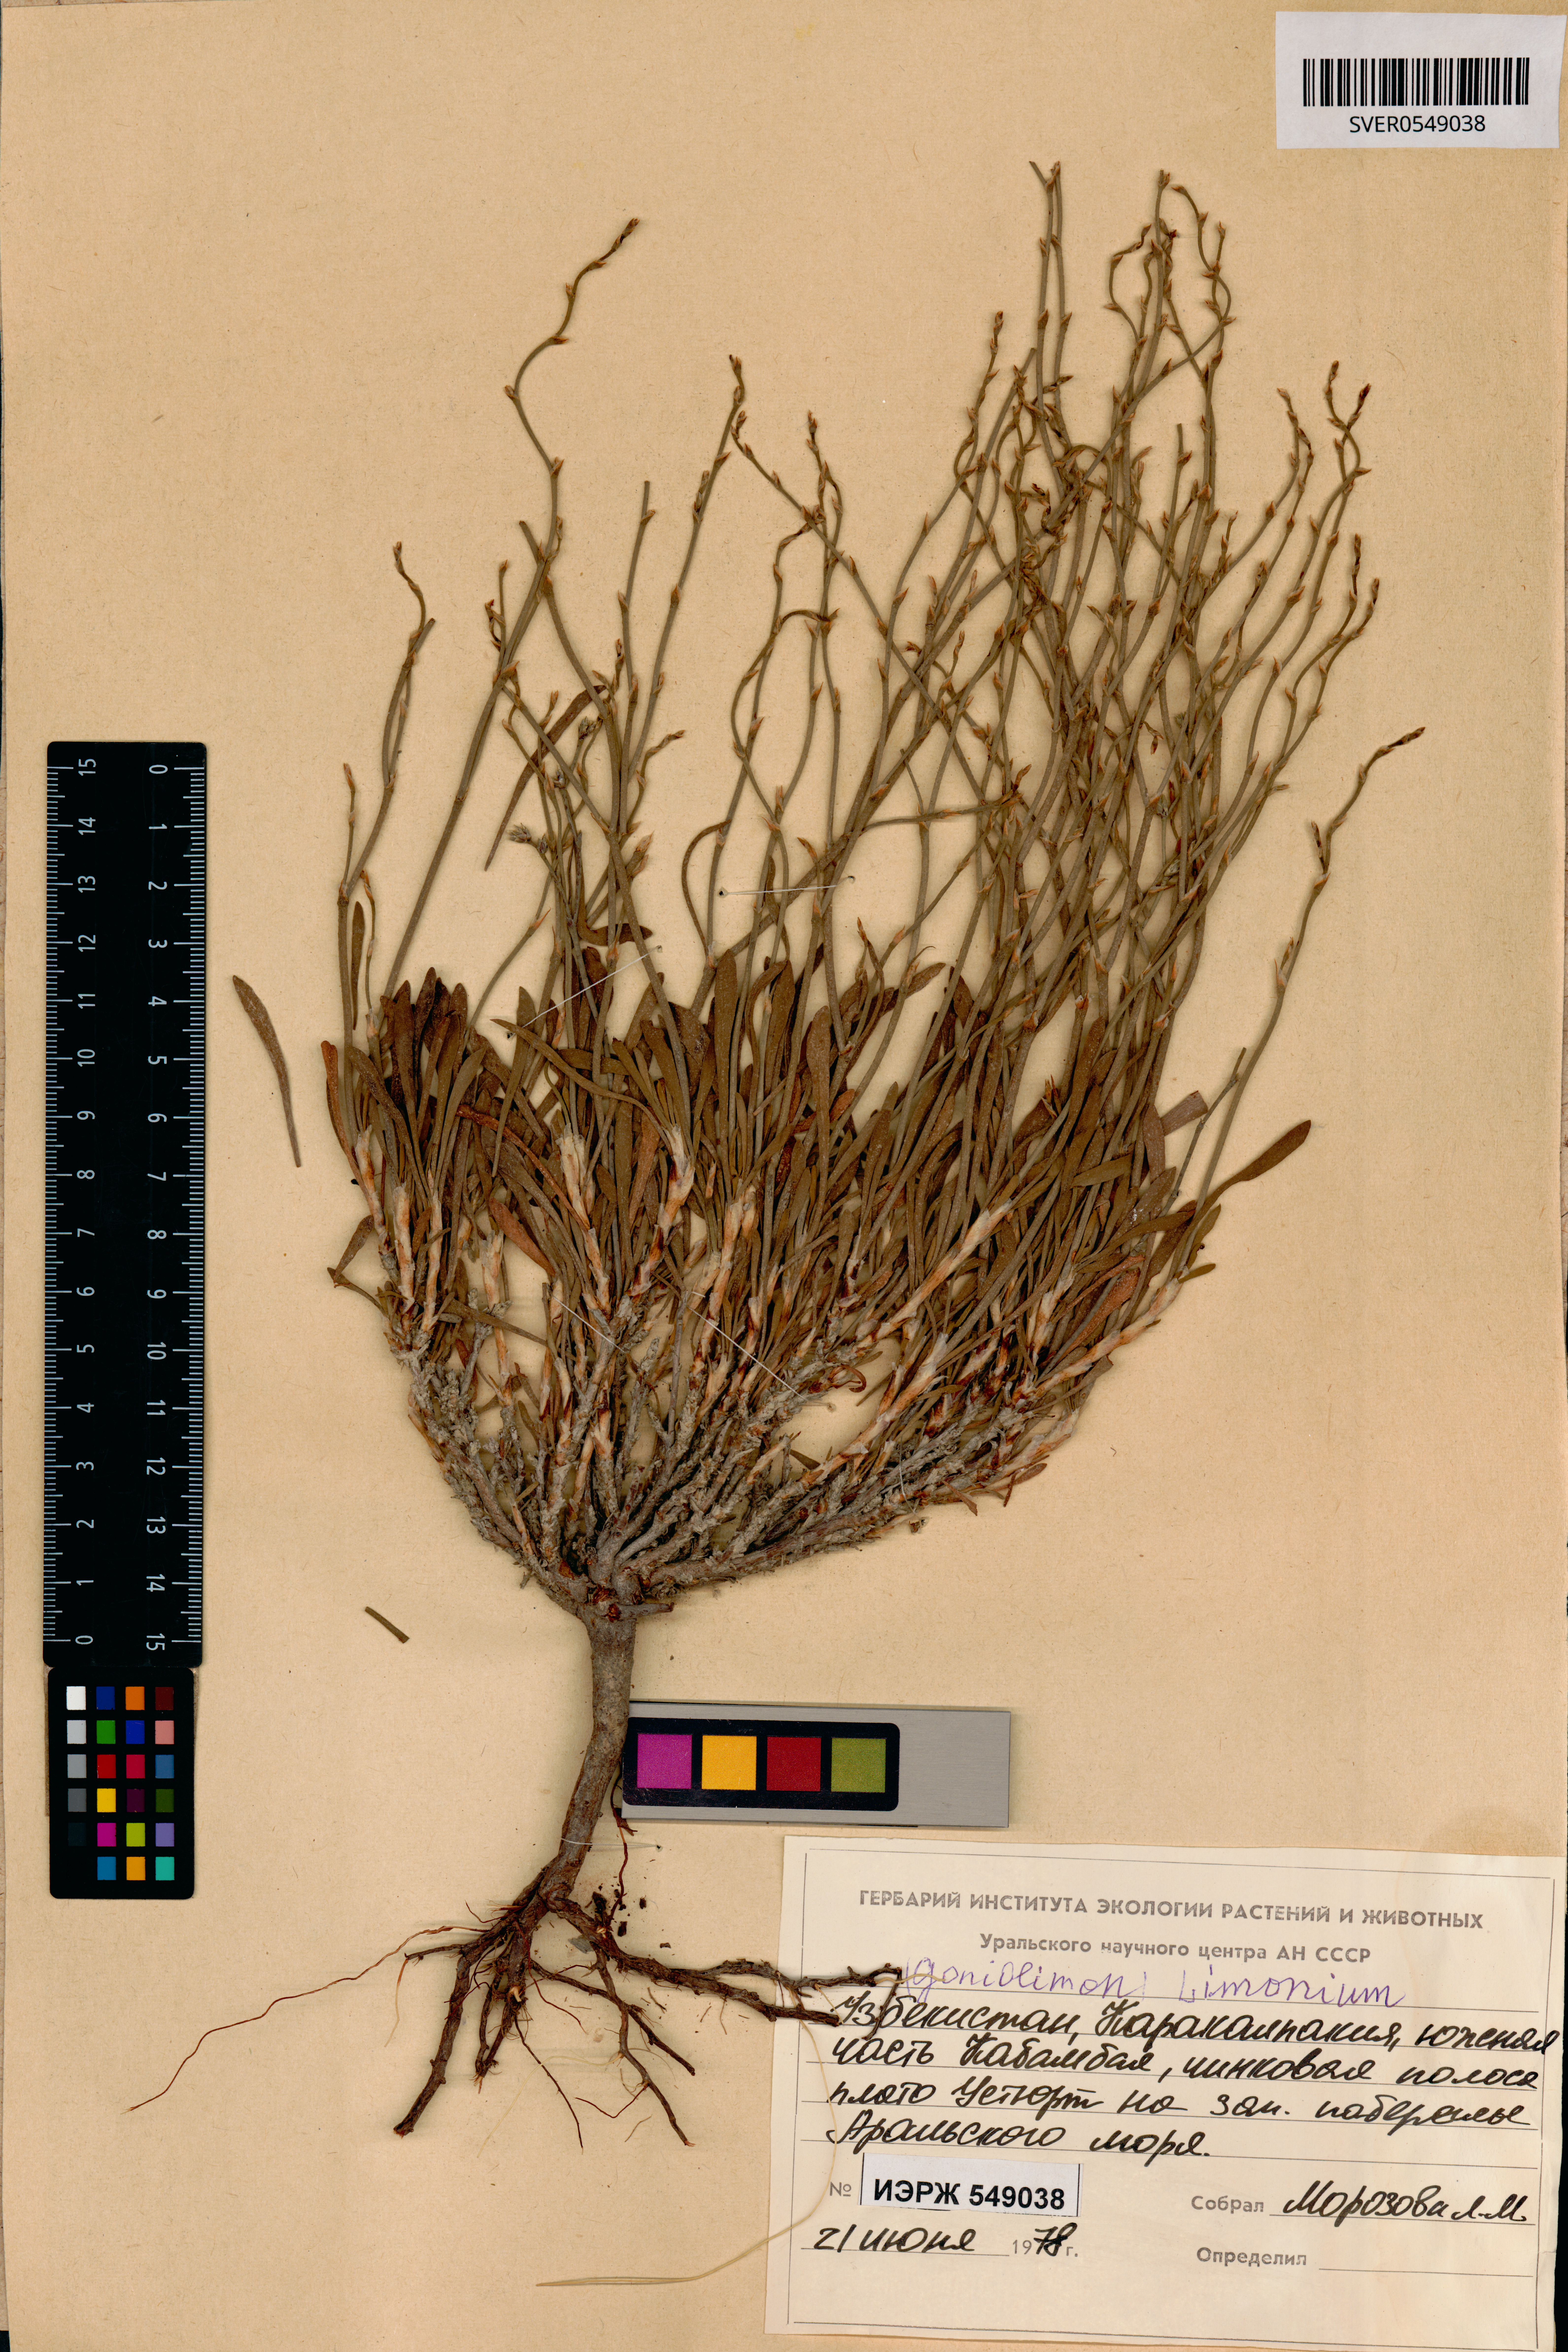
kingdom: Plantae
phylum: Tracheophyta
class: Magnoliopsida
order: Caryophyllales
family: Plumbaginaceae
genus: Goniolimon
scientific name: Goniolimon
